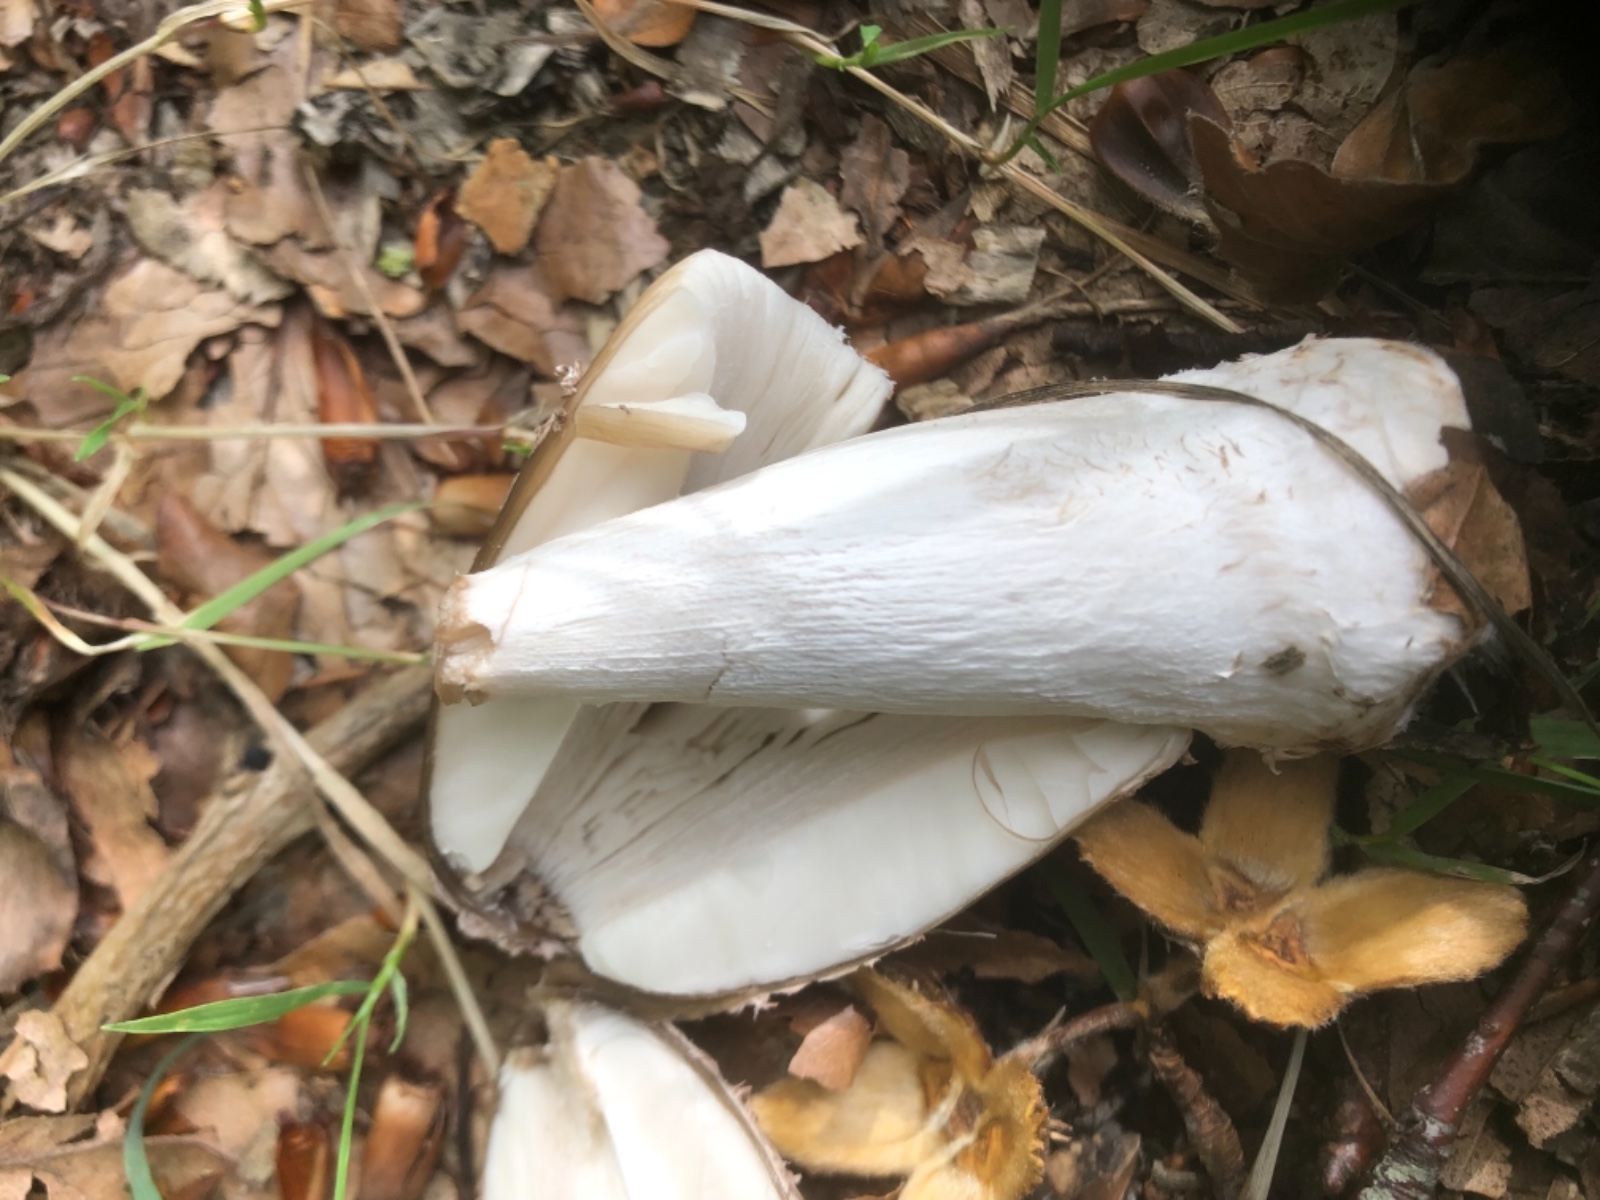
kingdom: Fungi
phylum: Basidiomycota
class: Agaricomycetes
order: Agaricales
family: Psathyrellaceae
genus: Coprinopsis
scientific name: Coprinopsis picacea
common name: skade-blækhat
